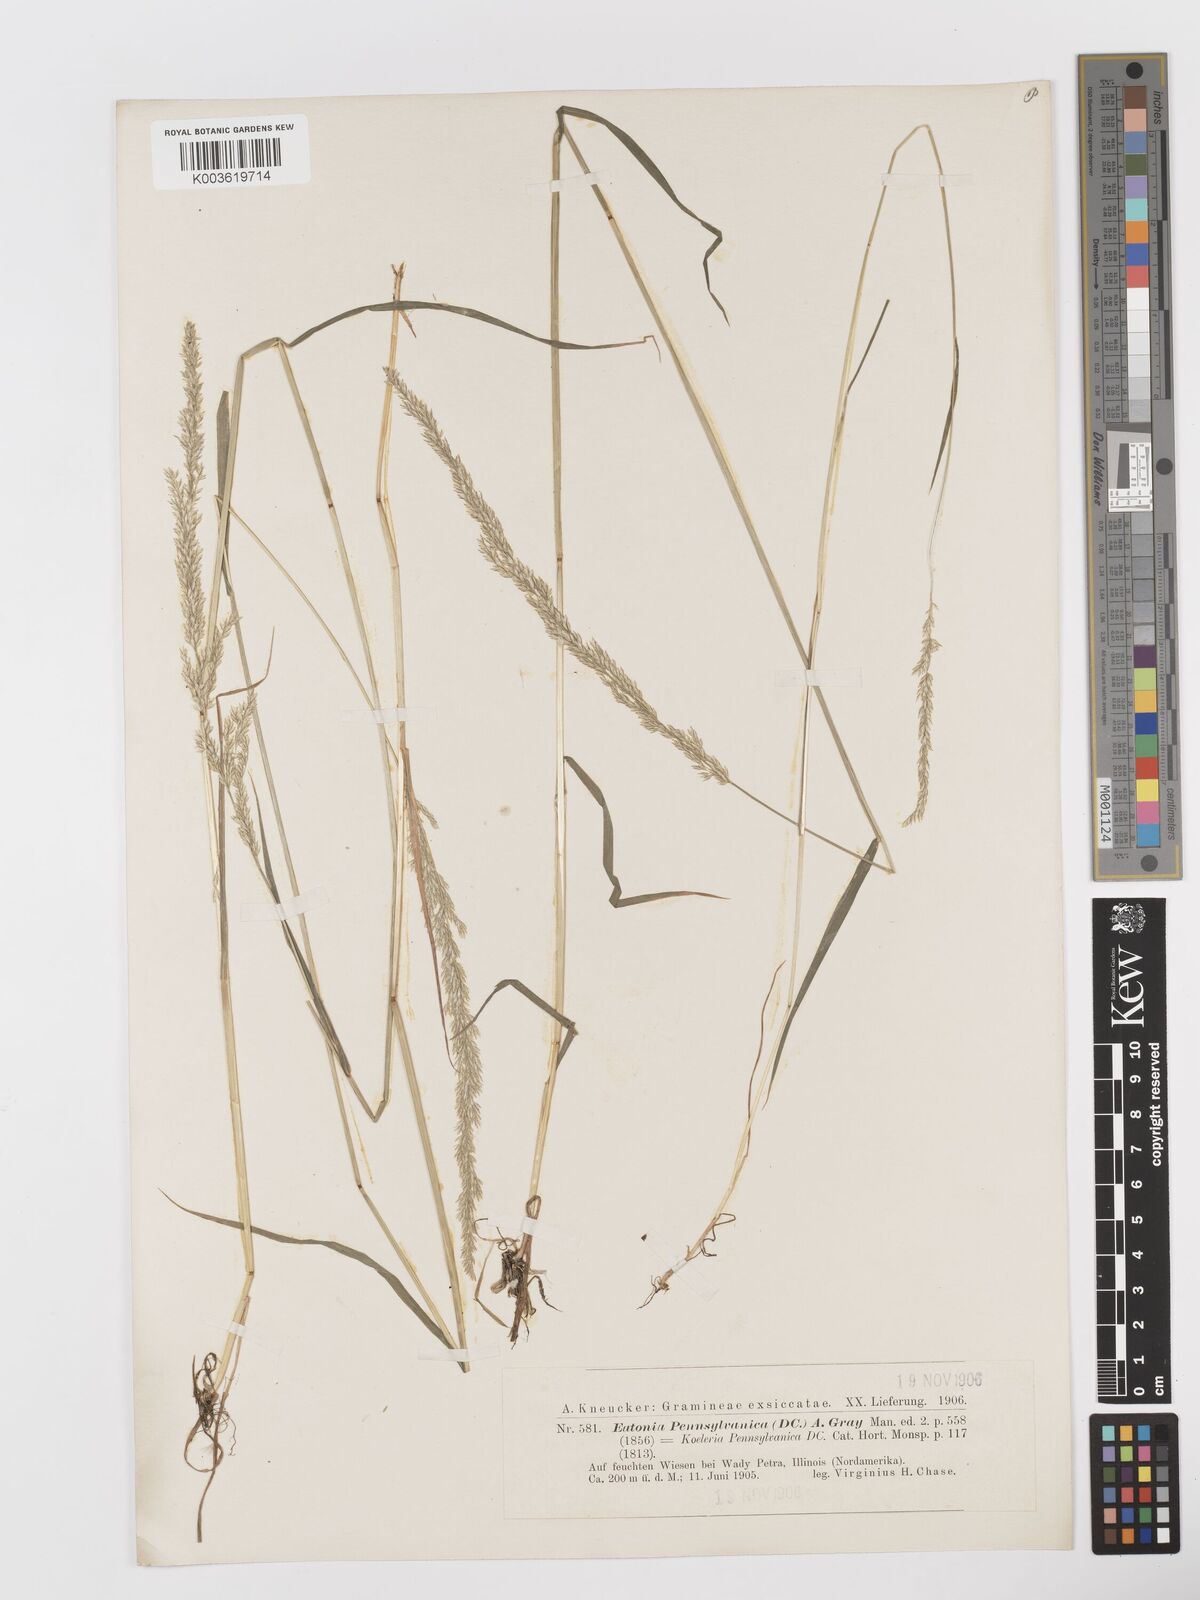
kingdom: Plantae
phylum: Tracheophyta
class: Liliopsida
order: Poales
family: Poaceae
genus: Sphenopholis
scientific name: Sphenopholis obtusata
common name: Prairie grass
